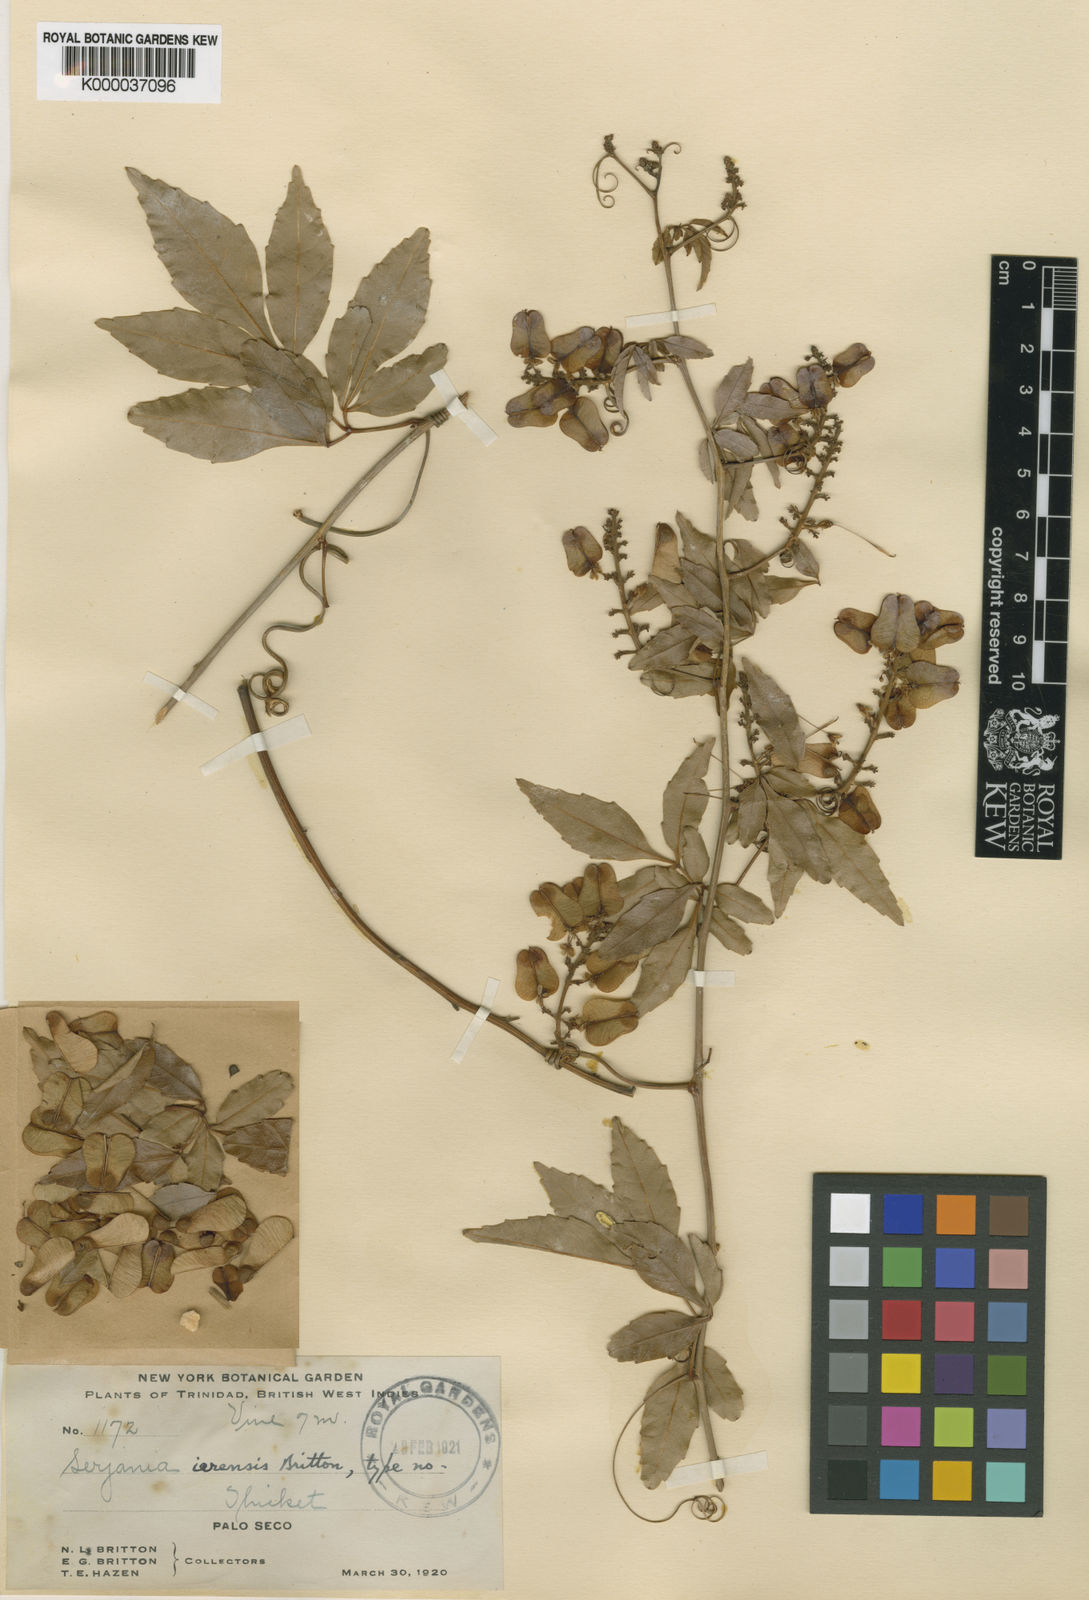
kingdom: Plantae
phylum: Tracheophyta
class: Magnoliopsida
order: Sapindales
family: Sapindaceae
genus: Serjania
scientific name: Serjania caracasana
